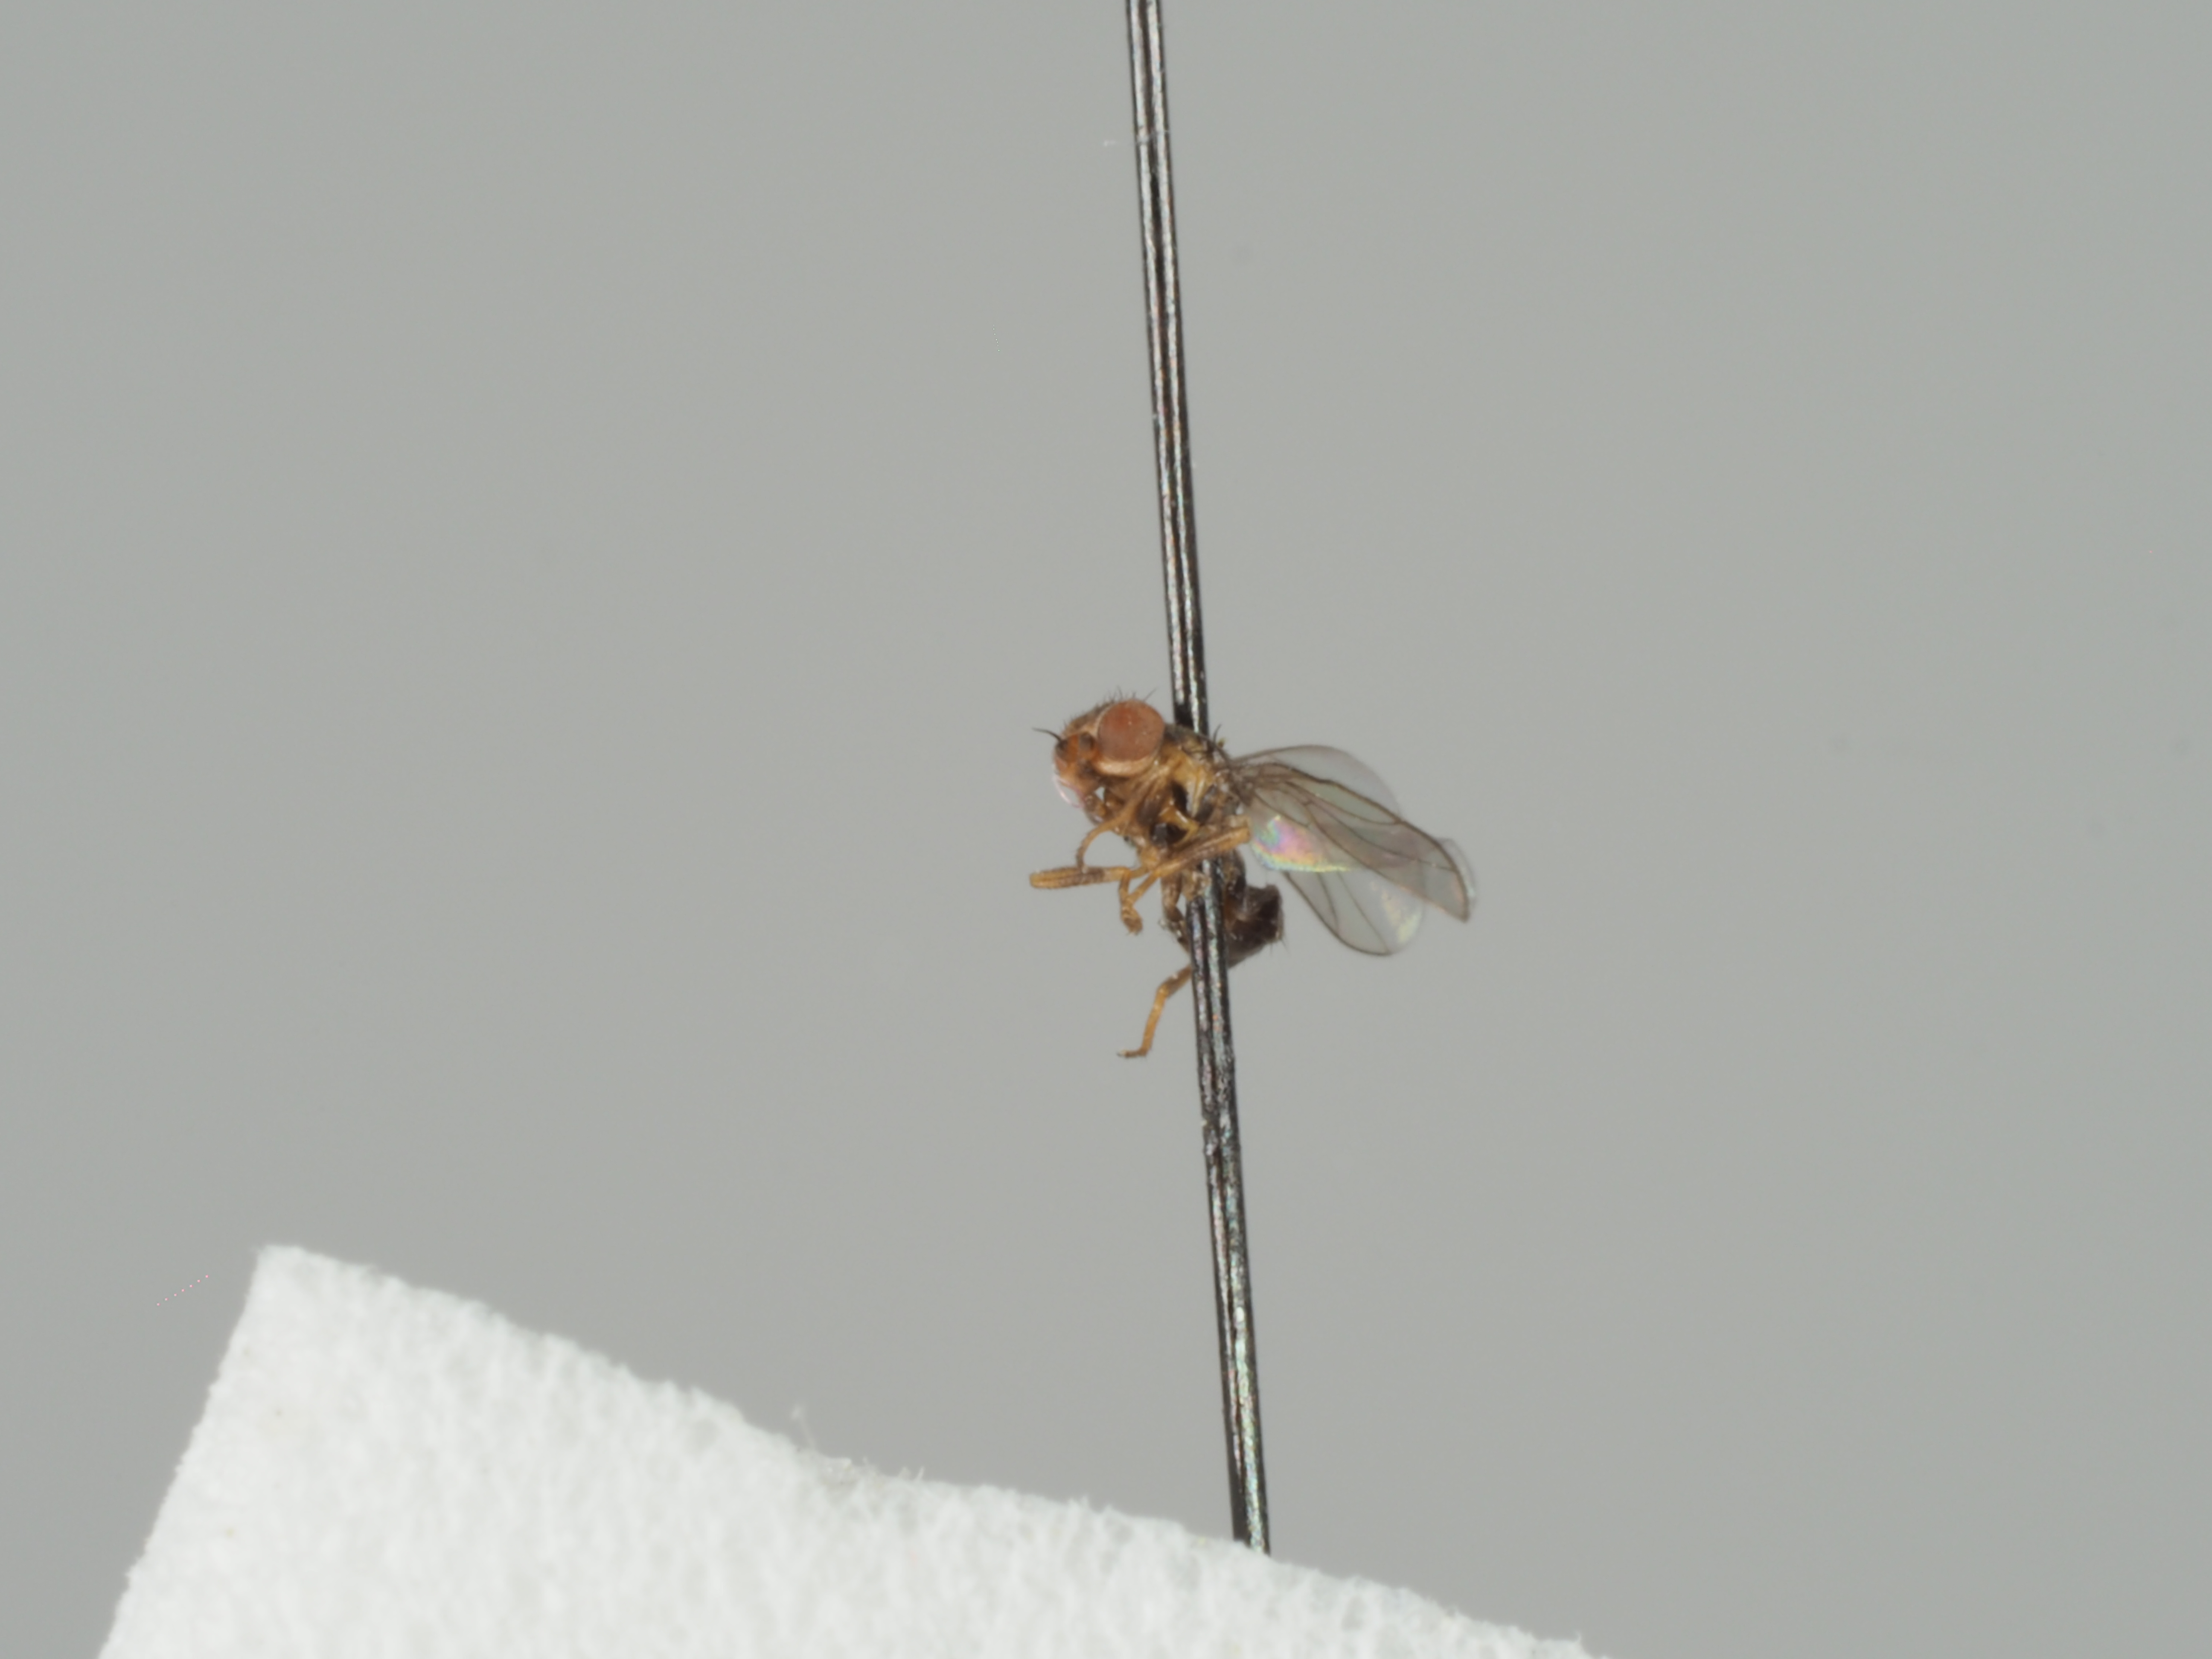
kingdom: Animalia
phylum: Arthropoda
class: Insecta
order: Diptera
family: Chloropidae
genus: Trachysiphonella
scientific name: Trachysiphonella scutellata
